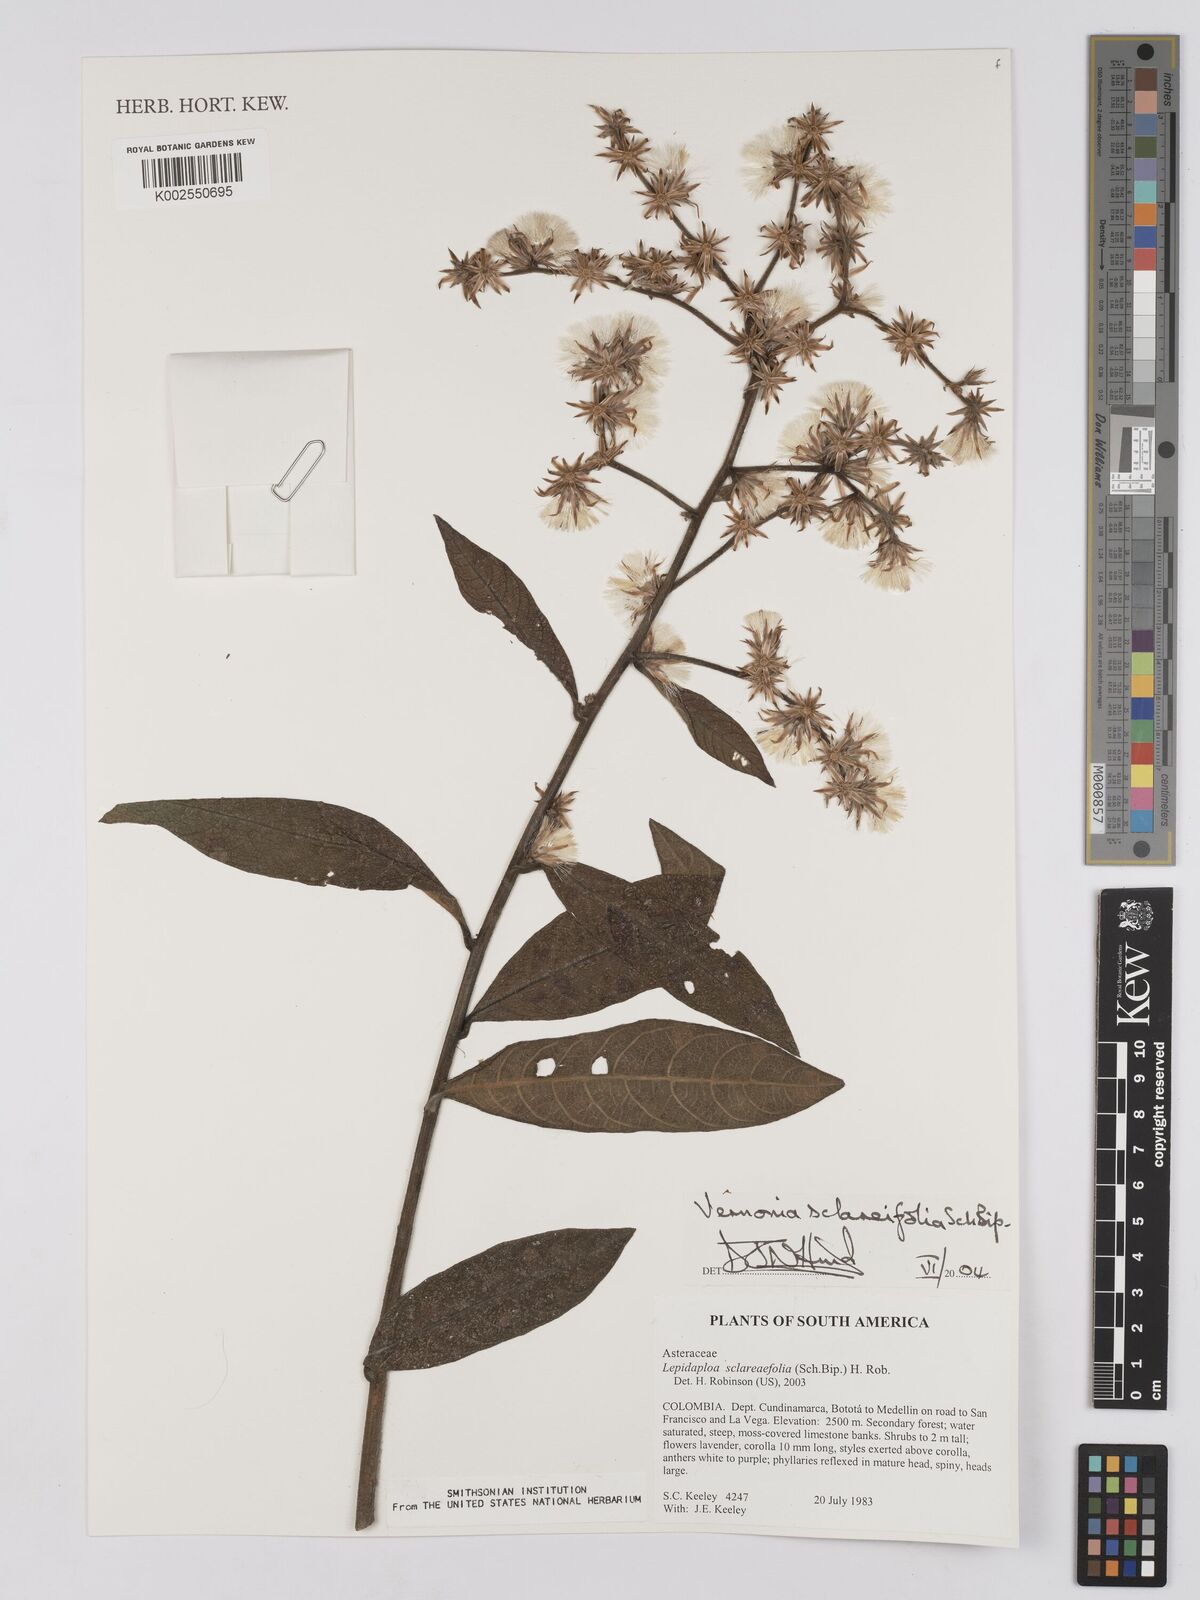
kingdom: Plantae
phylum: Tracheophyta
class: Magnoliopsida
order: Asterales
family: Asteraceae
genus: Lepidaploa
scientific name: Lepidaploa sclareifolia
